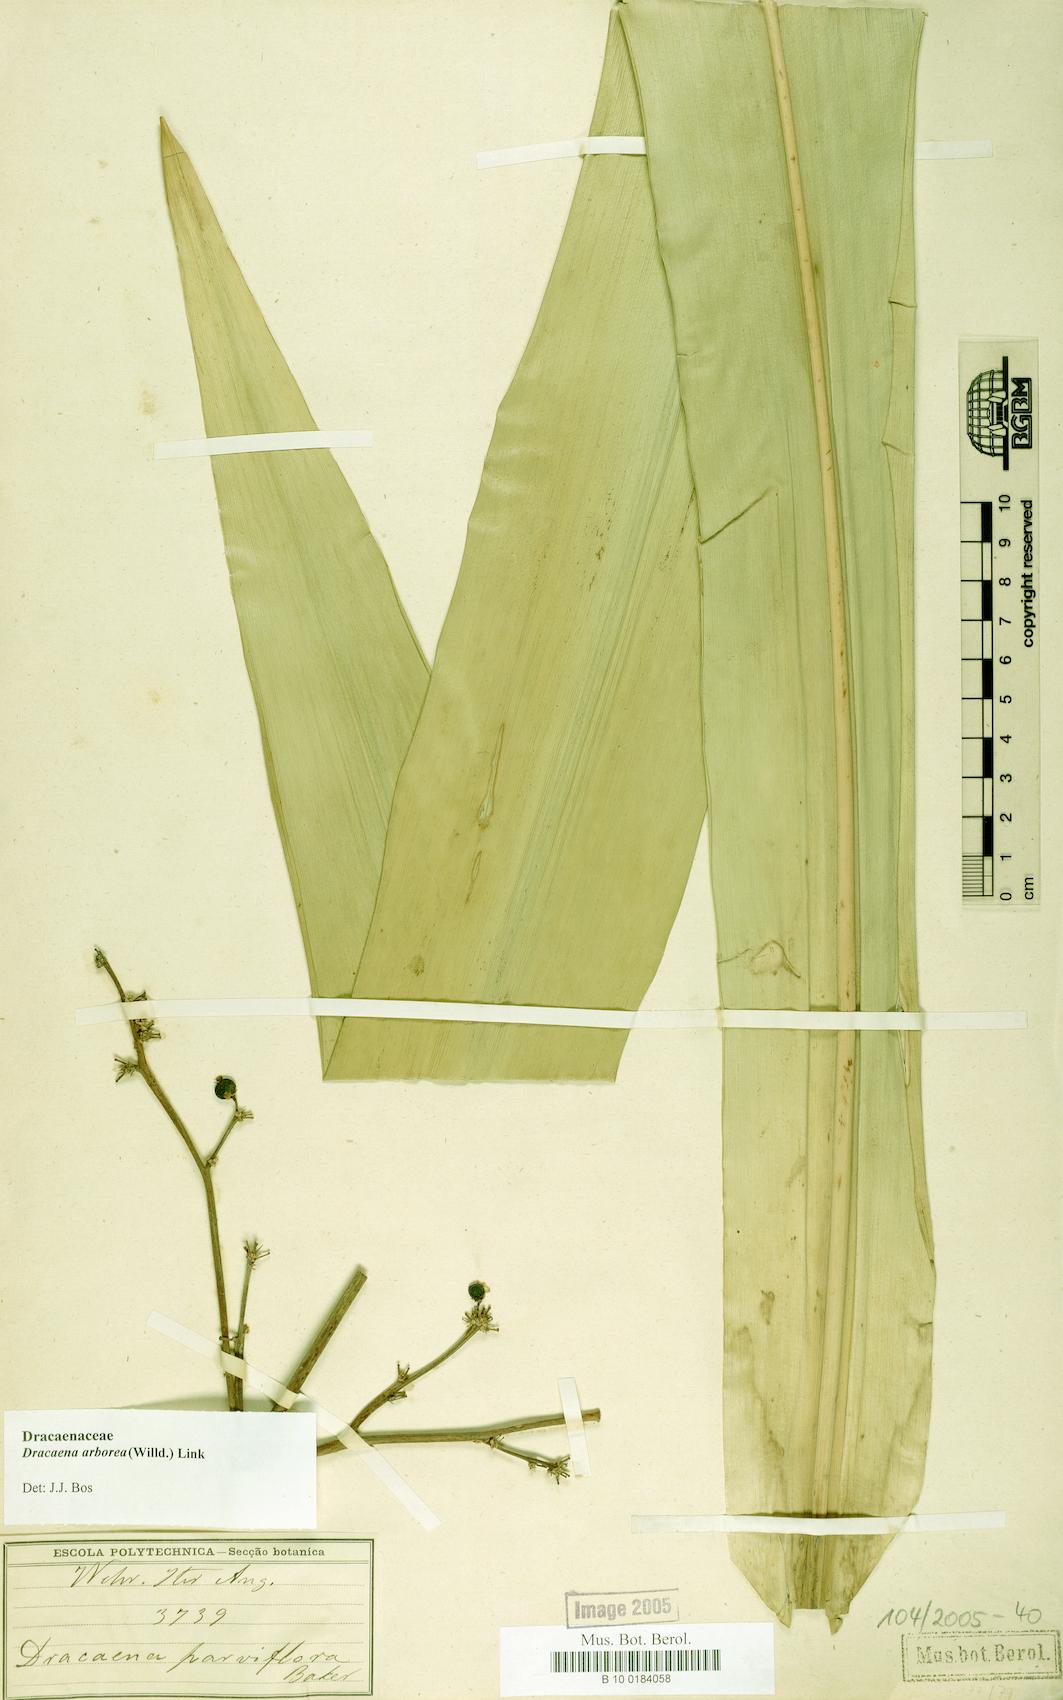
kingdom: Plantae
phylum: Tracheophyta
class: Liliopsida
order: Asparagales
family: Asparagaceae
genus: Dracaena
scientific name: Dracaena arborea
